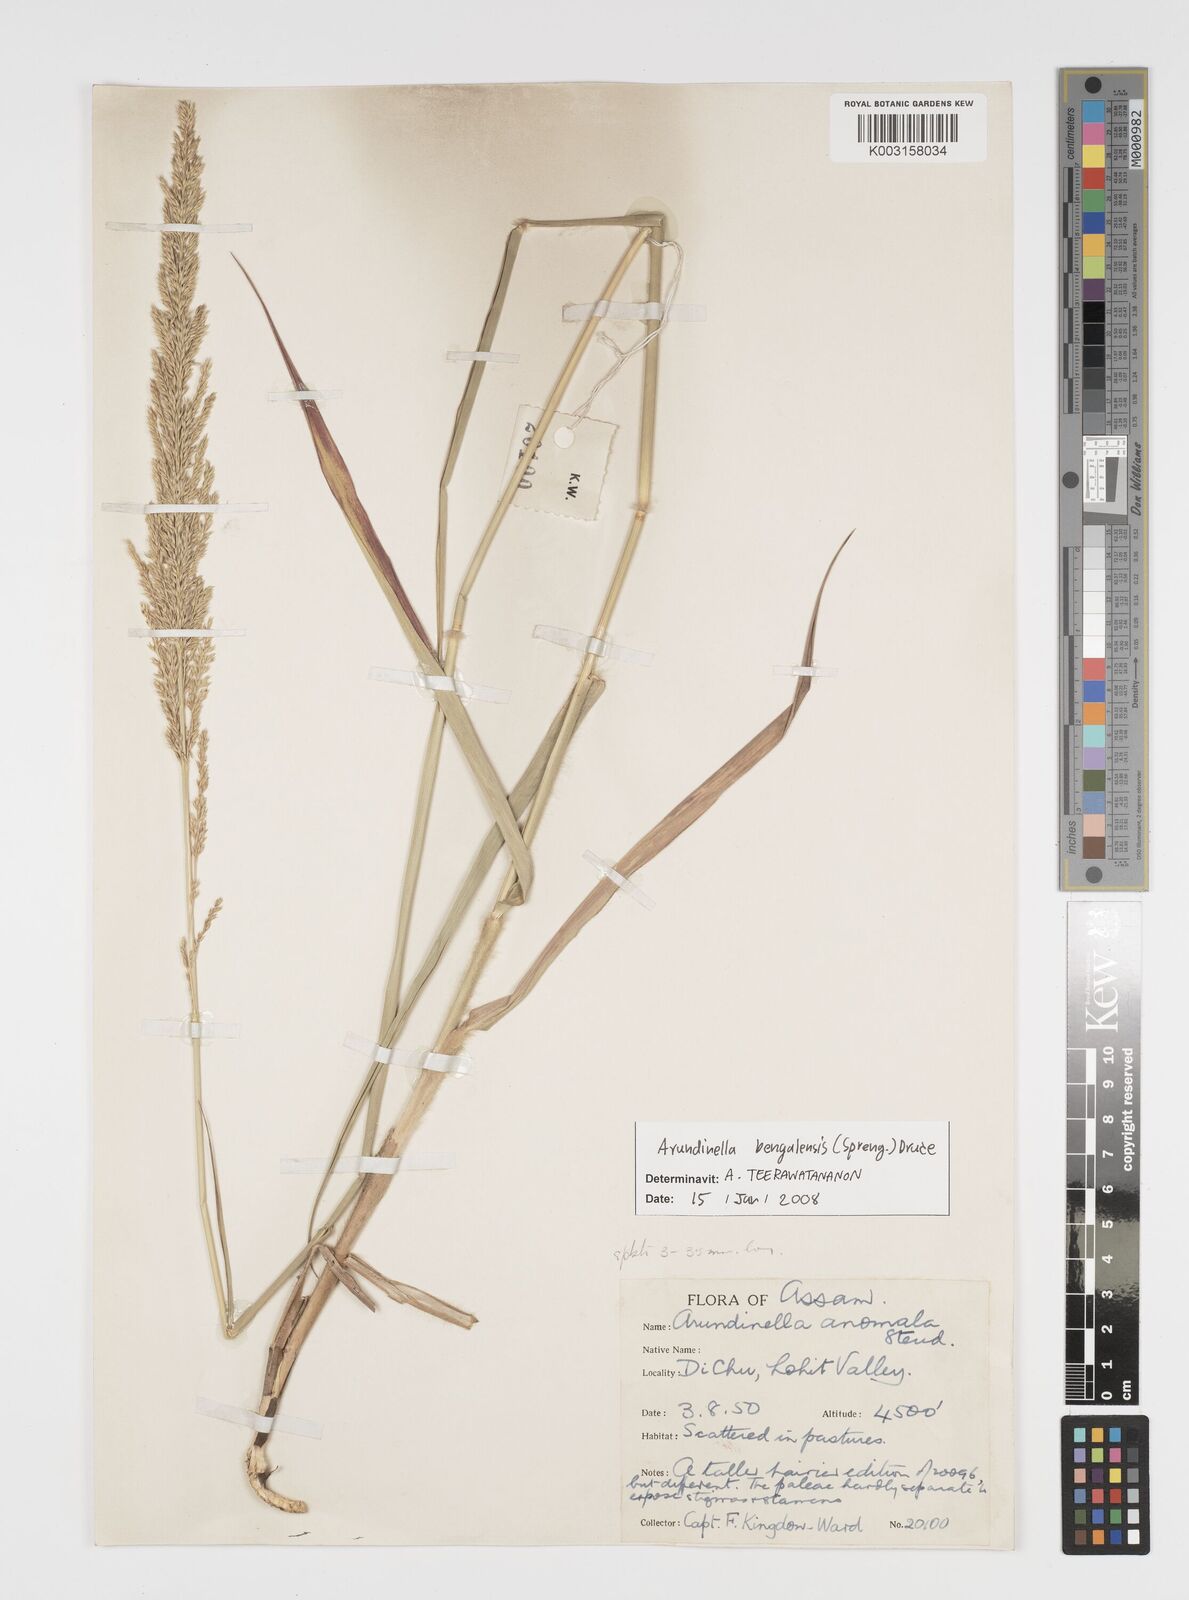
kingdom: Plantae
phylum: Tracheophyta
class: Liliopsida
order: Poales
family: Poaceae
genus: Arundinella
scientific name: Arundinella bengalensis
